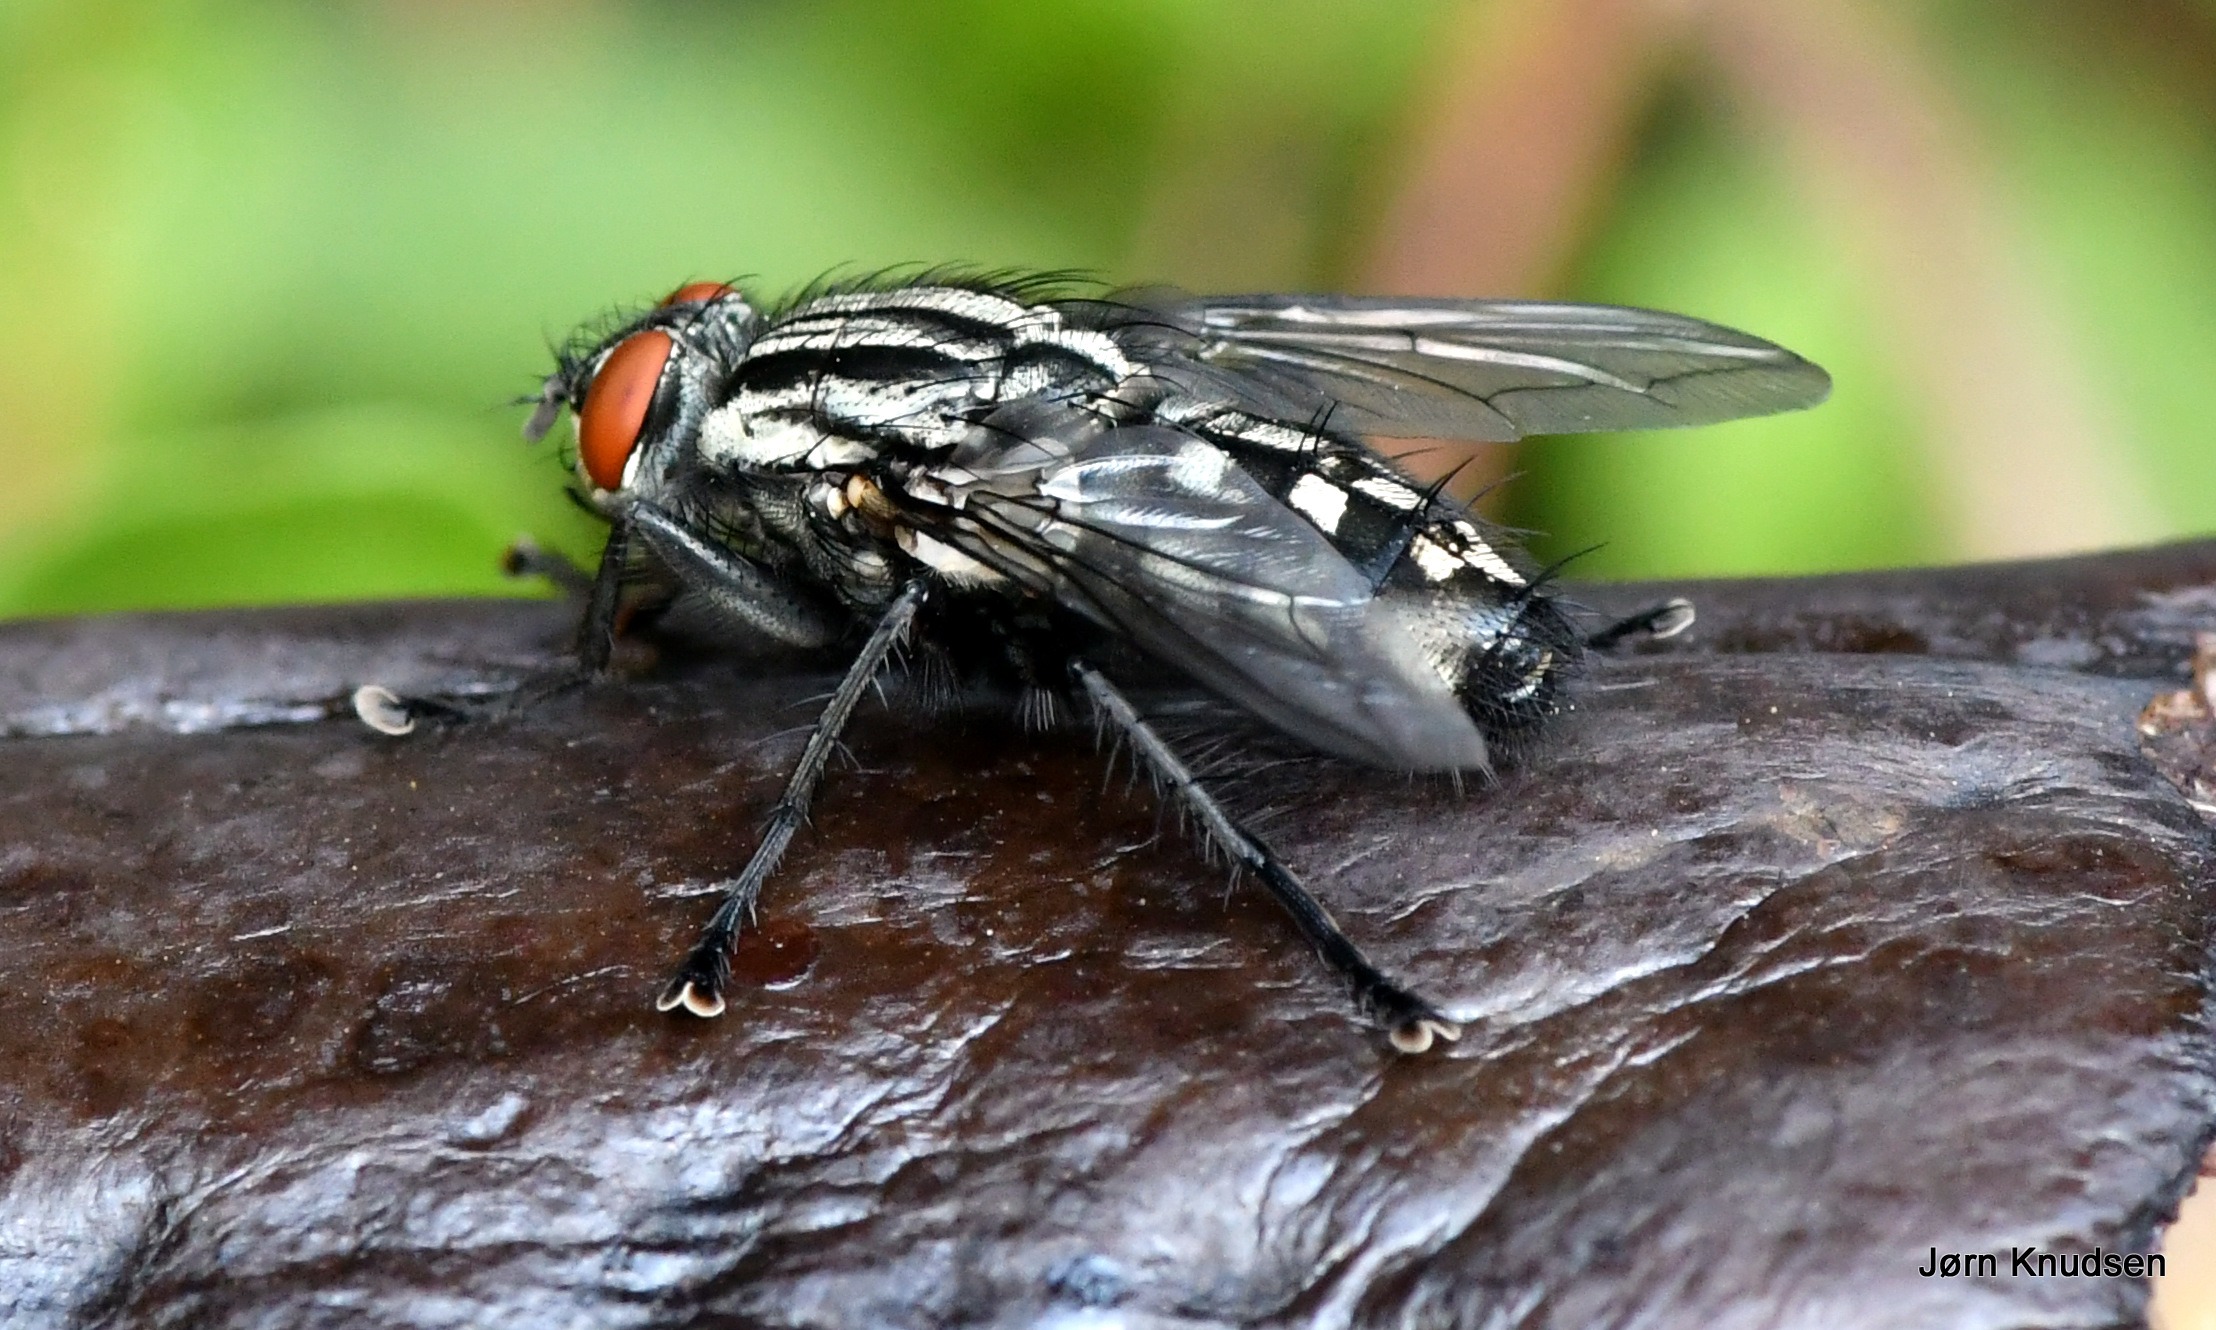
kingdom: Animalia
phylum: Arthropoda
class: Insecta
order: Diptera
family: Sarcophagidae
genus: Sarcophaga
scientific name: Sarcophaga
